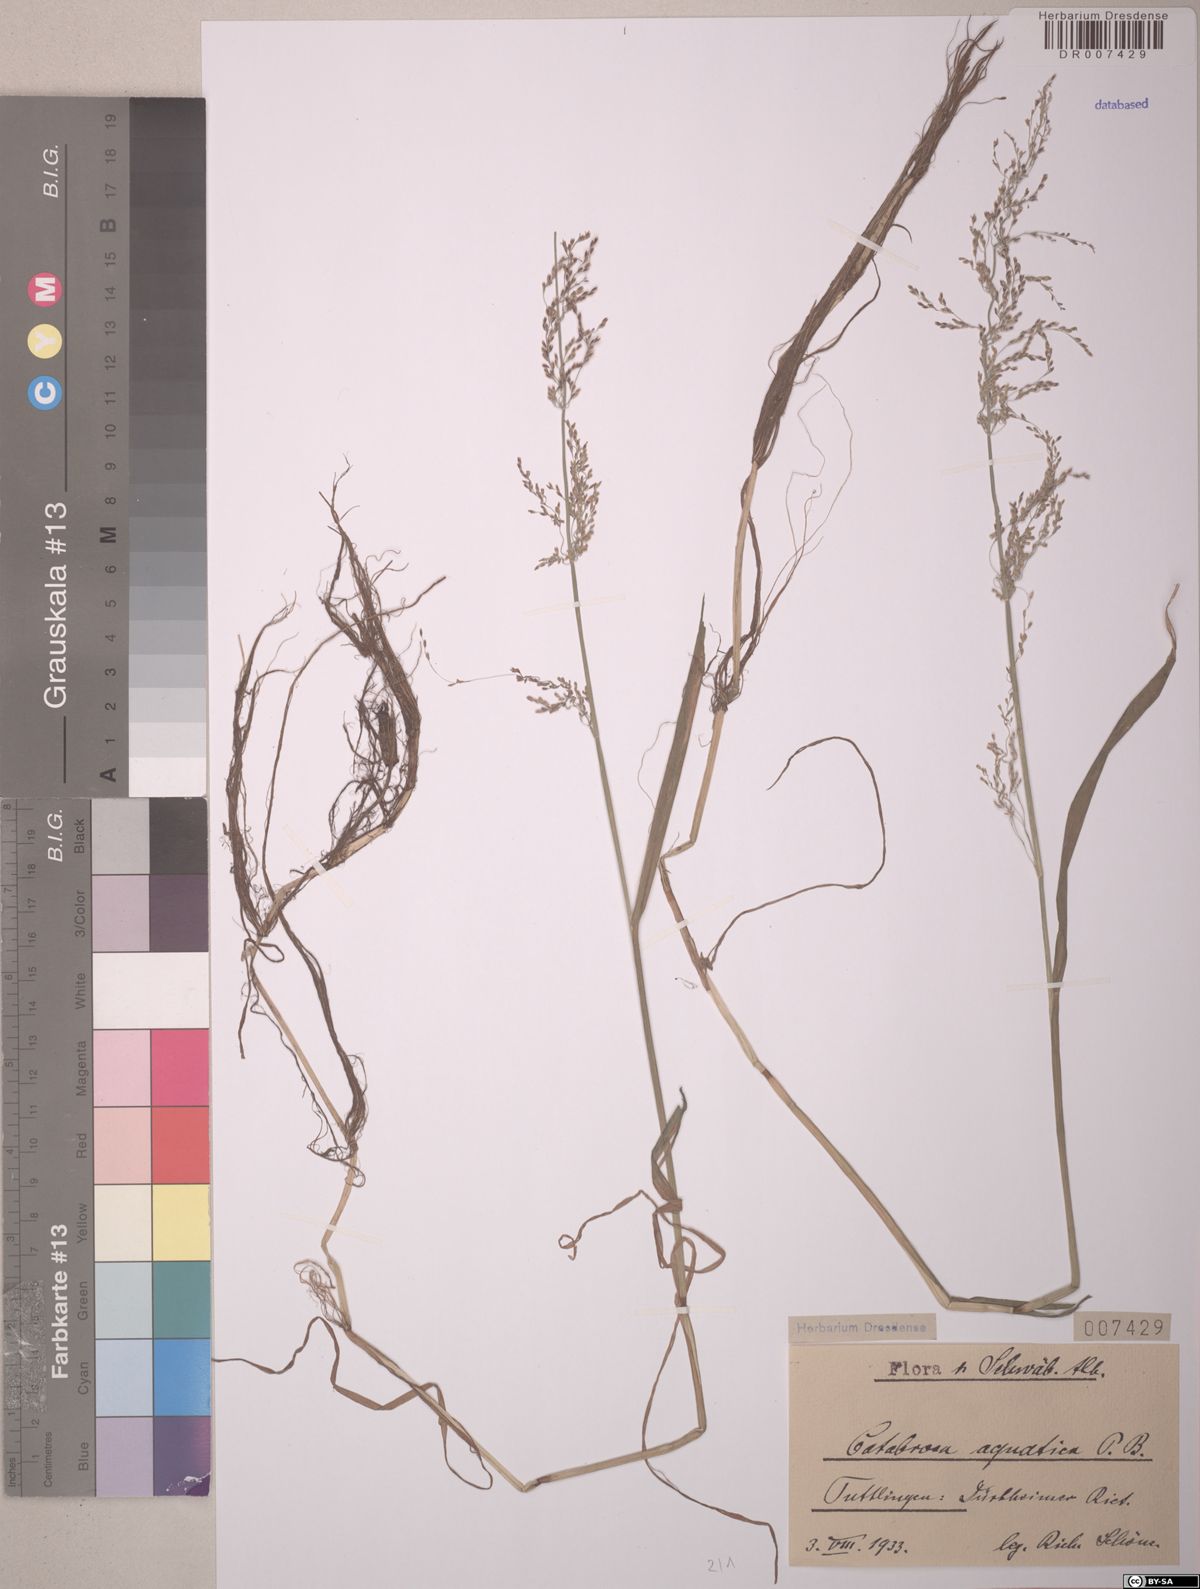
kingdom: Plantae
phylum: Tracheophyta
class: Liliopsida
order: Poales
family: Poaceae
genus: Catabrosa
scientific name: Catabrosa aquatica
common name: Whorl-grass
